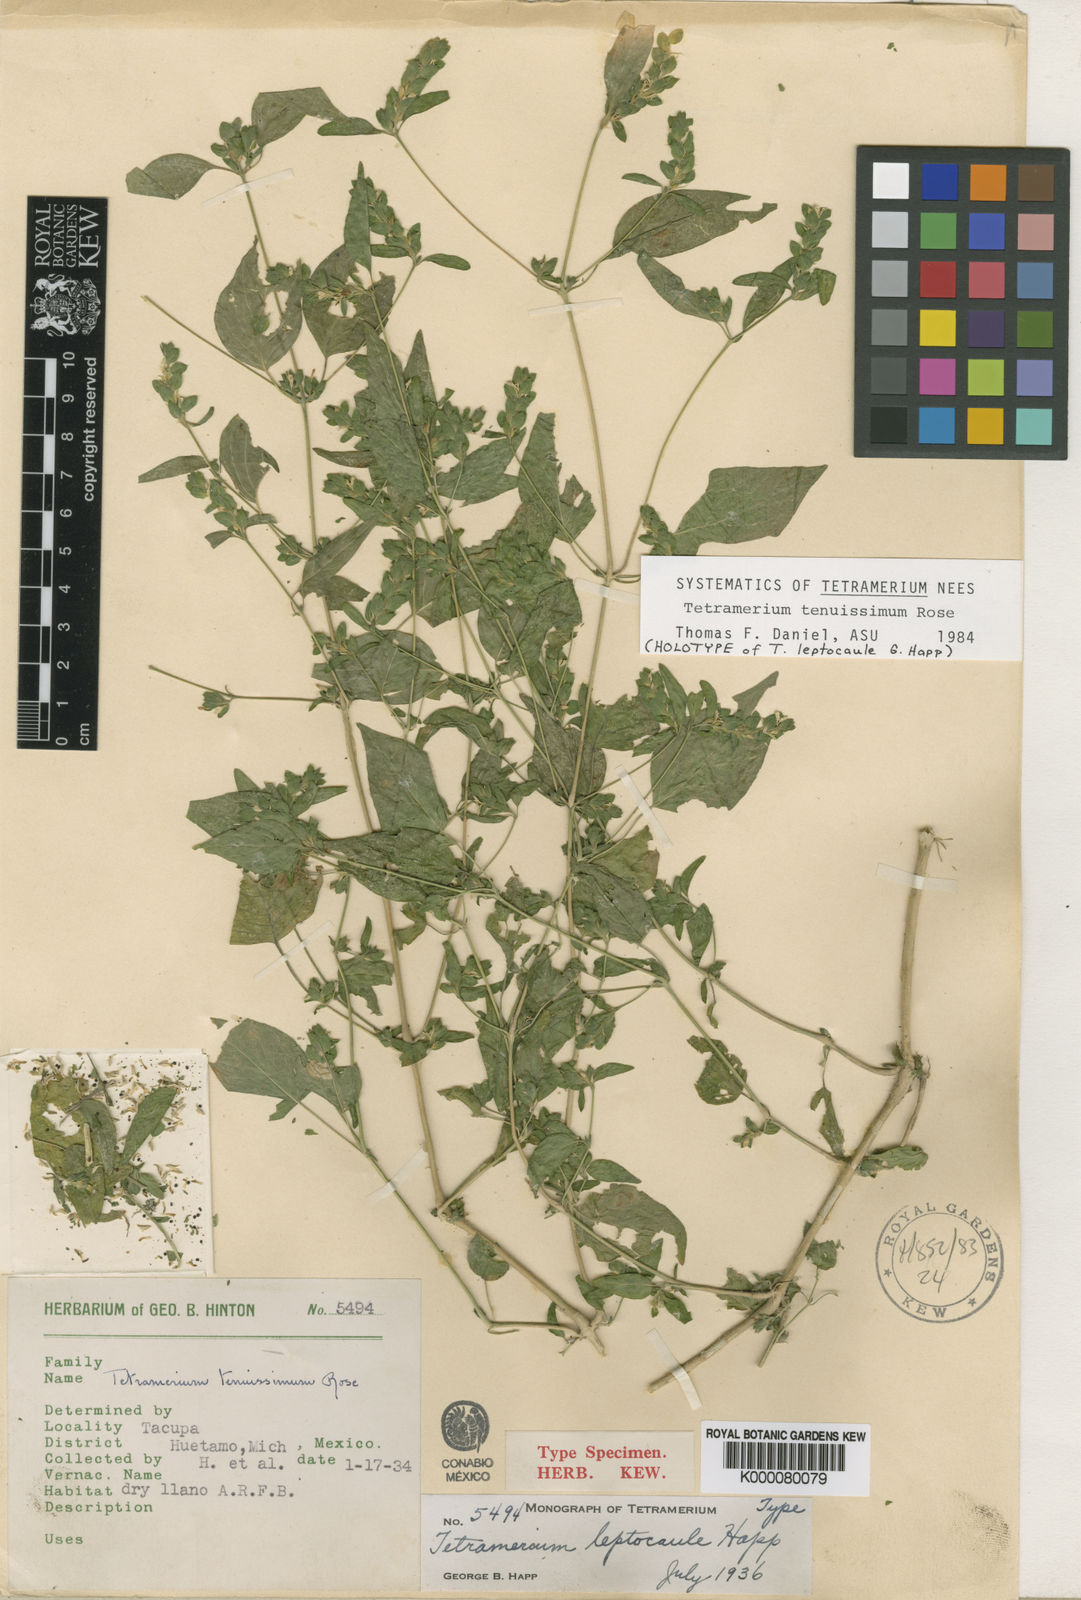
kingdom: Plantae
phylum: Tracheophyta
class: Magnoliopsida
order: Lamiales
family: Acanthaceae
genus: Tetramerium
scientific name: Tetramerium tenuissimum
